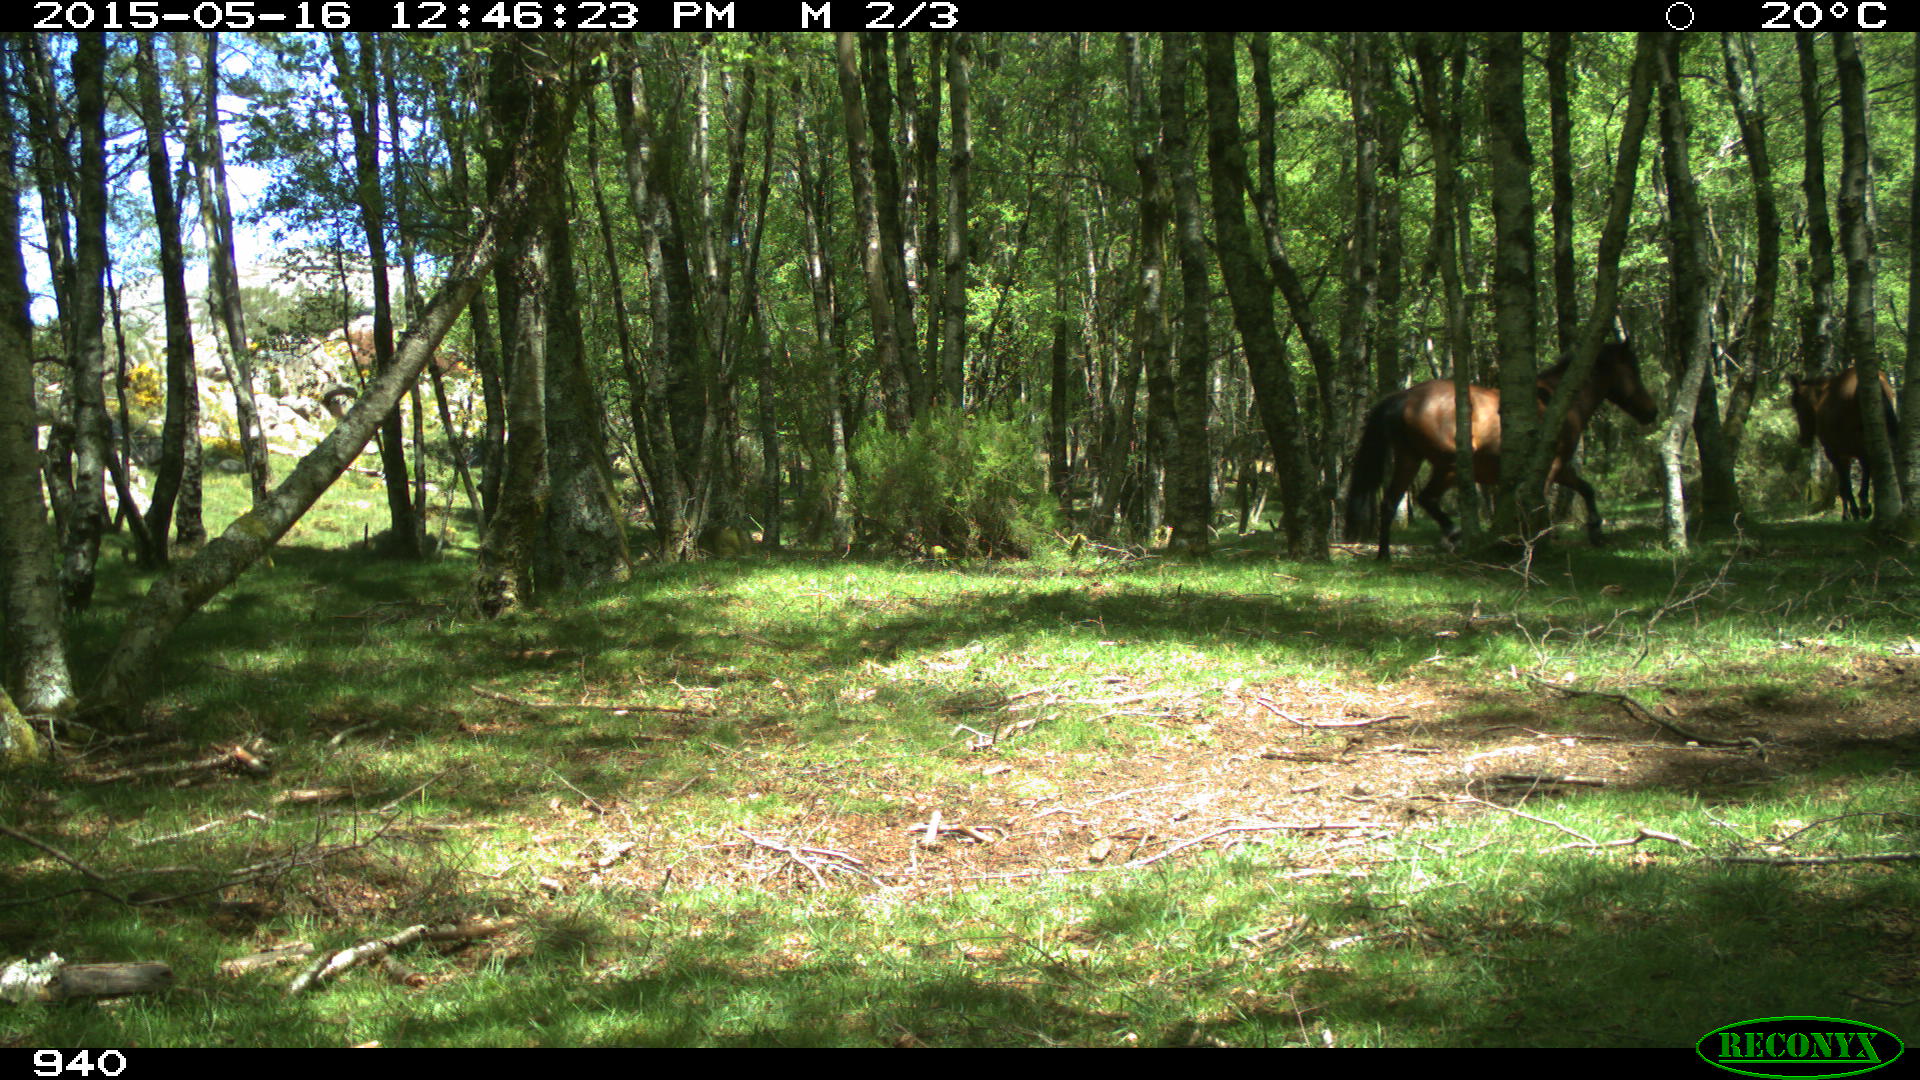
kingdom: Animalia
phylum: Chordata
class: Mammalia
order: Perissodactyla
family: Equidae
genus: Equus
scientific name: Equus caballus
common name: Horse
